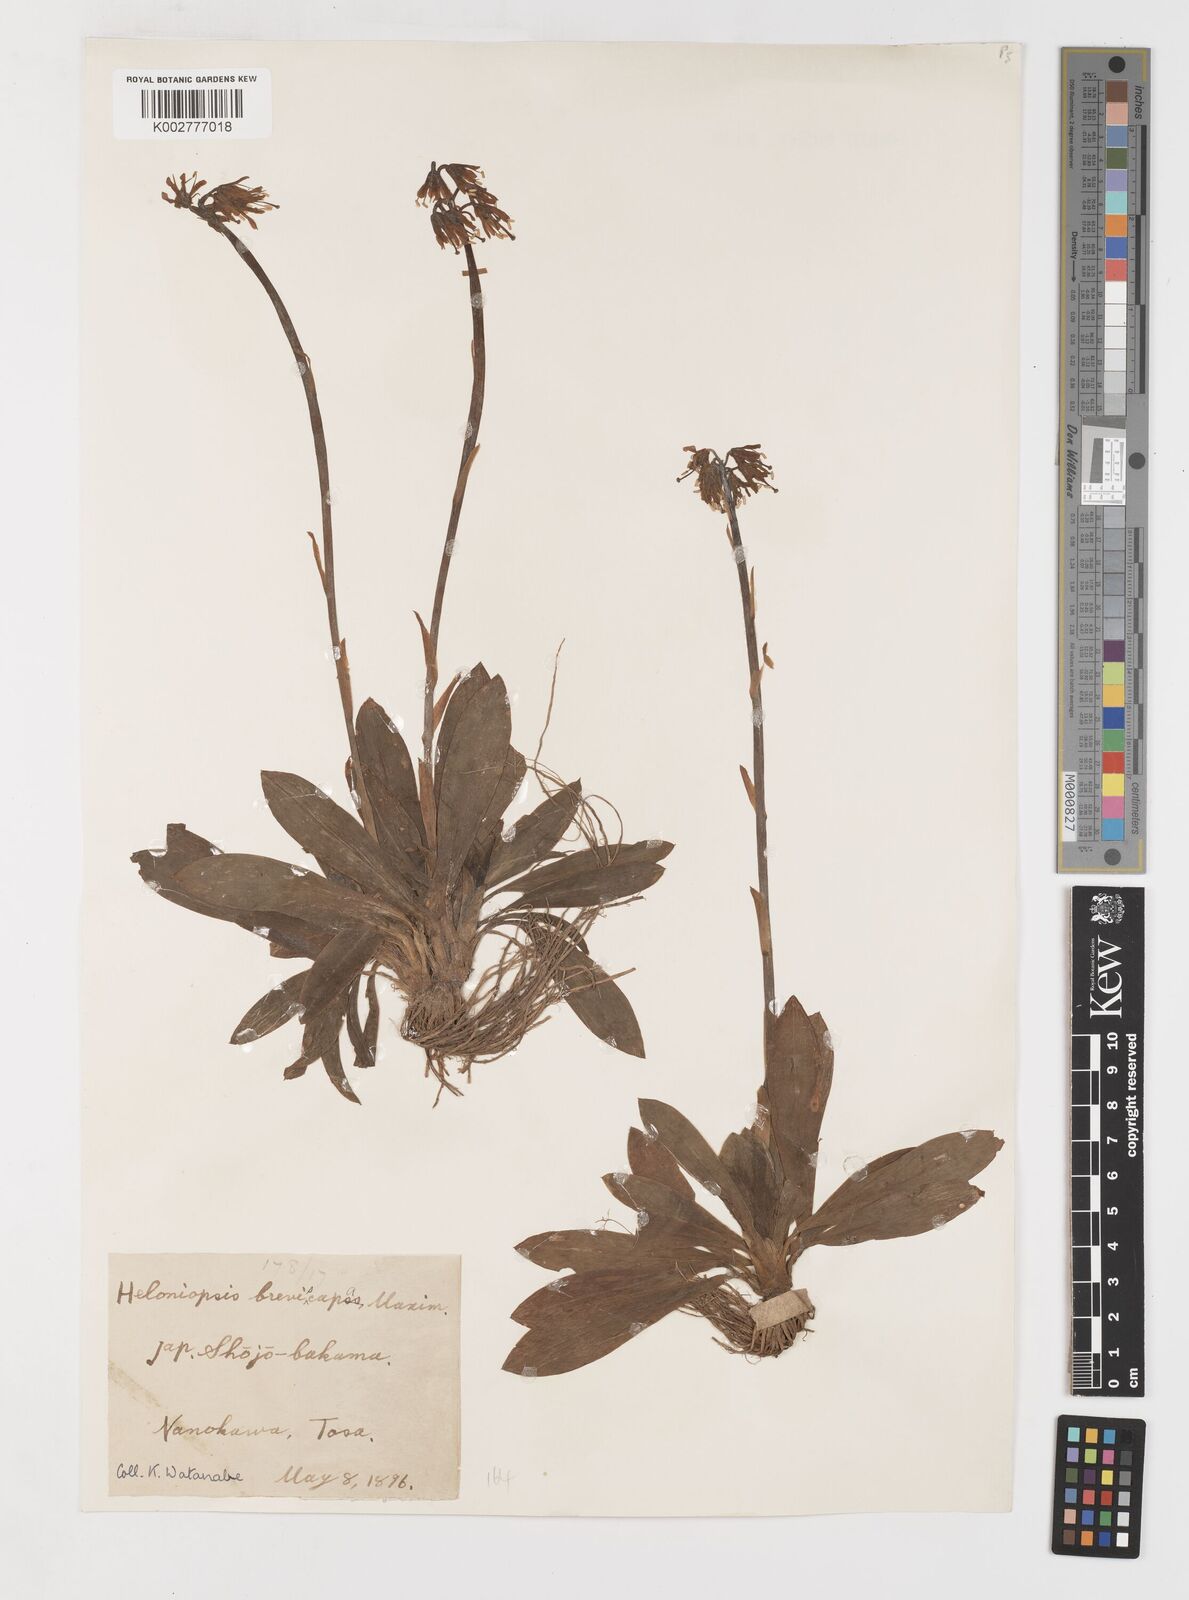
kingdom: Plantae
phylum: Tracheophyta
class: Liliopsida
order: Liliales
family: Melanthiaceae
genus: Helonias
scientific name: Helonias orientalis
